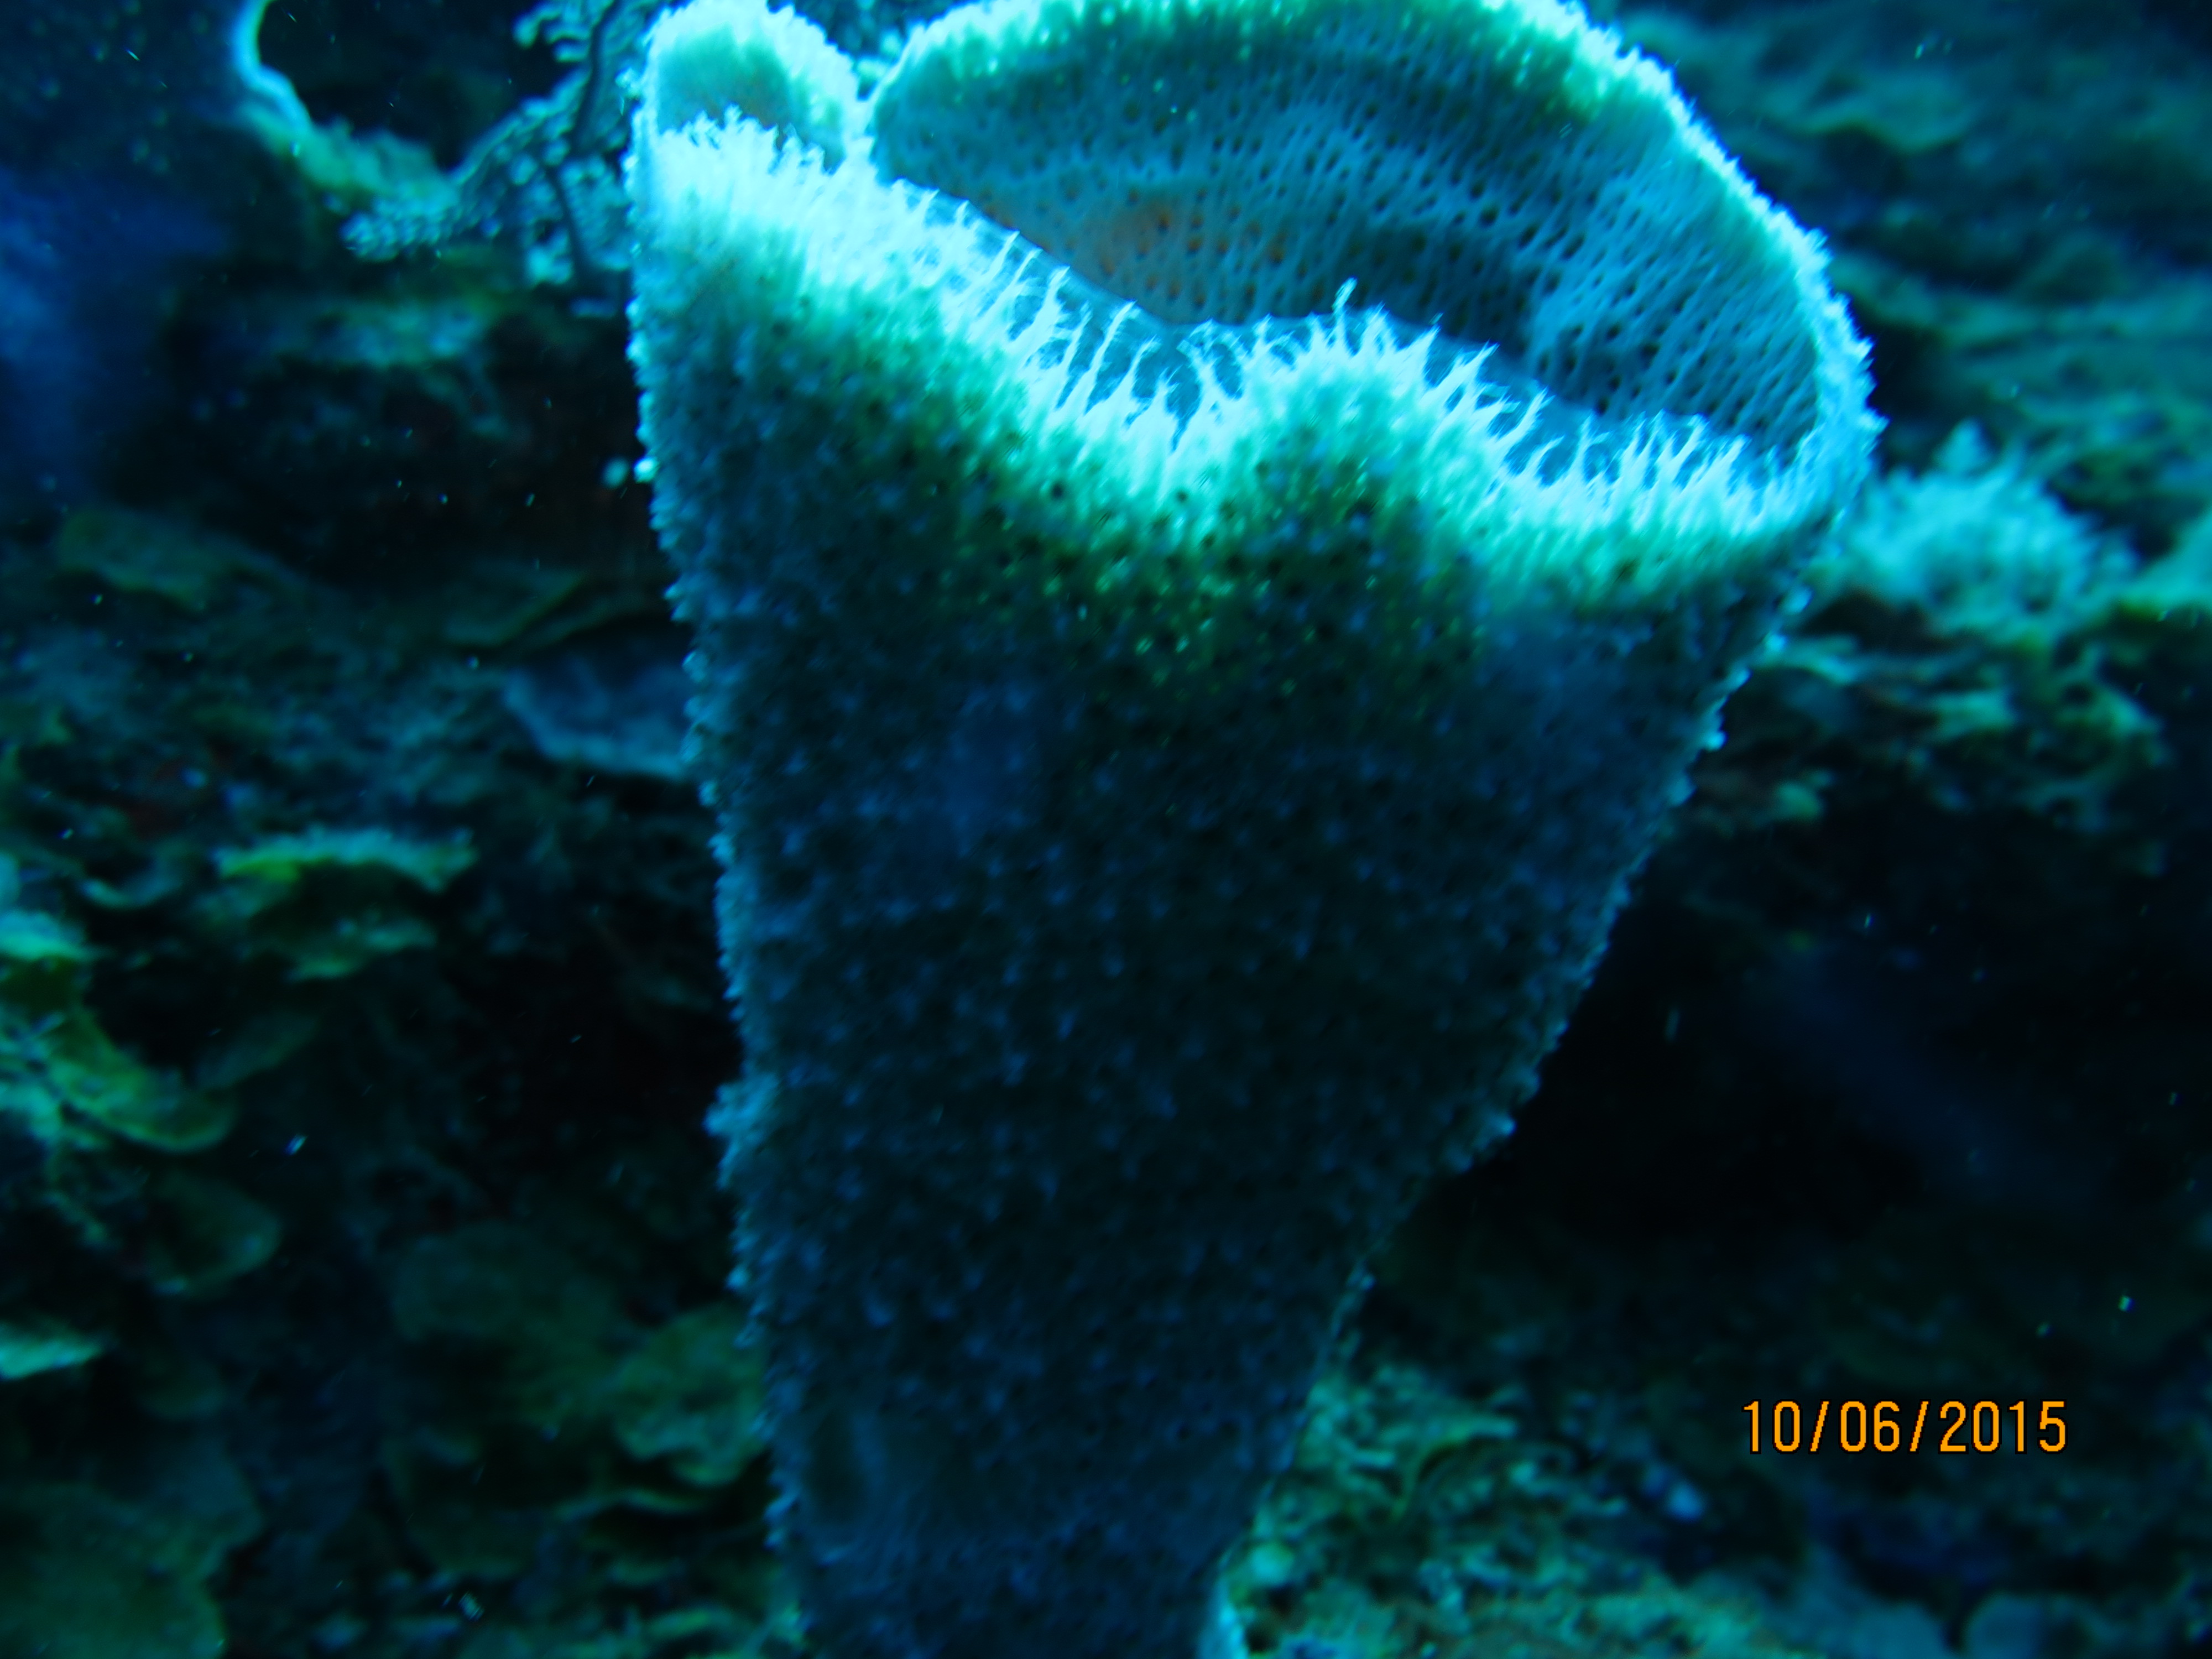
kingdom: Animalia
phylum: Porifera
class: Demospongiae
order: Haplosclerida
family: Niphatidae
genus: Niphates
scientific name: Niphates digitalis
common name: Pink vase sponge
